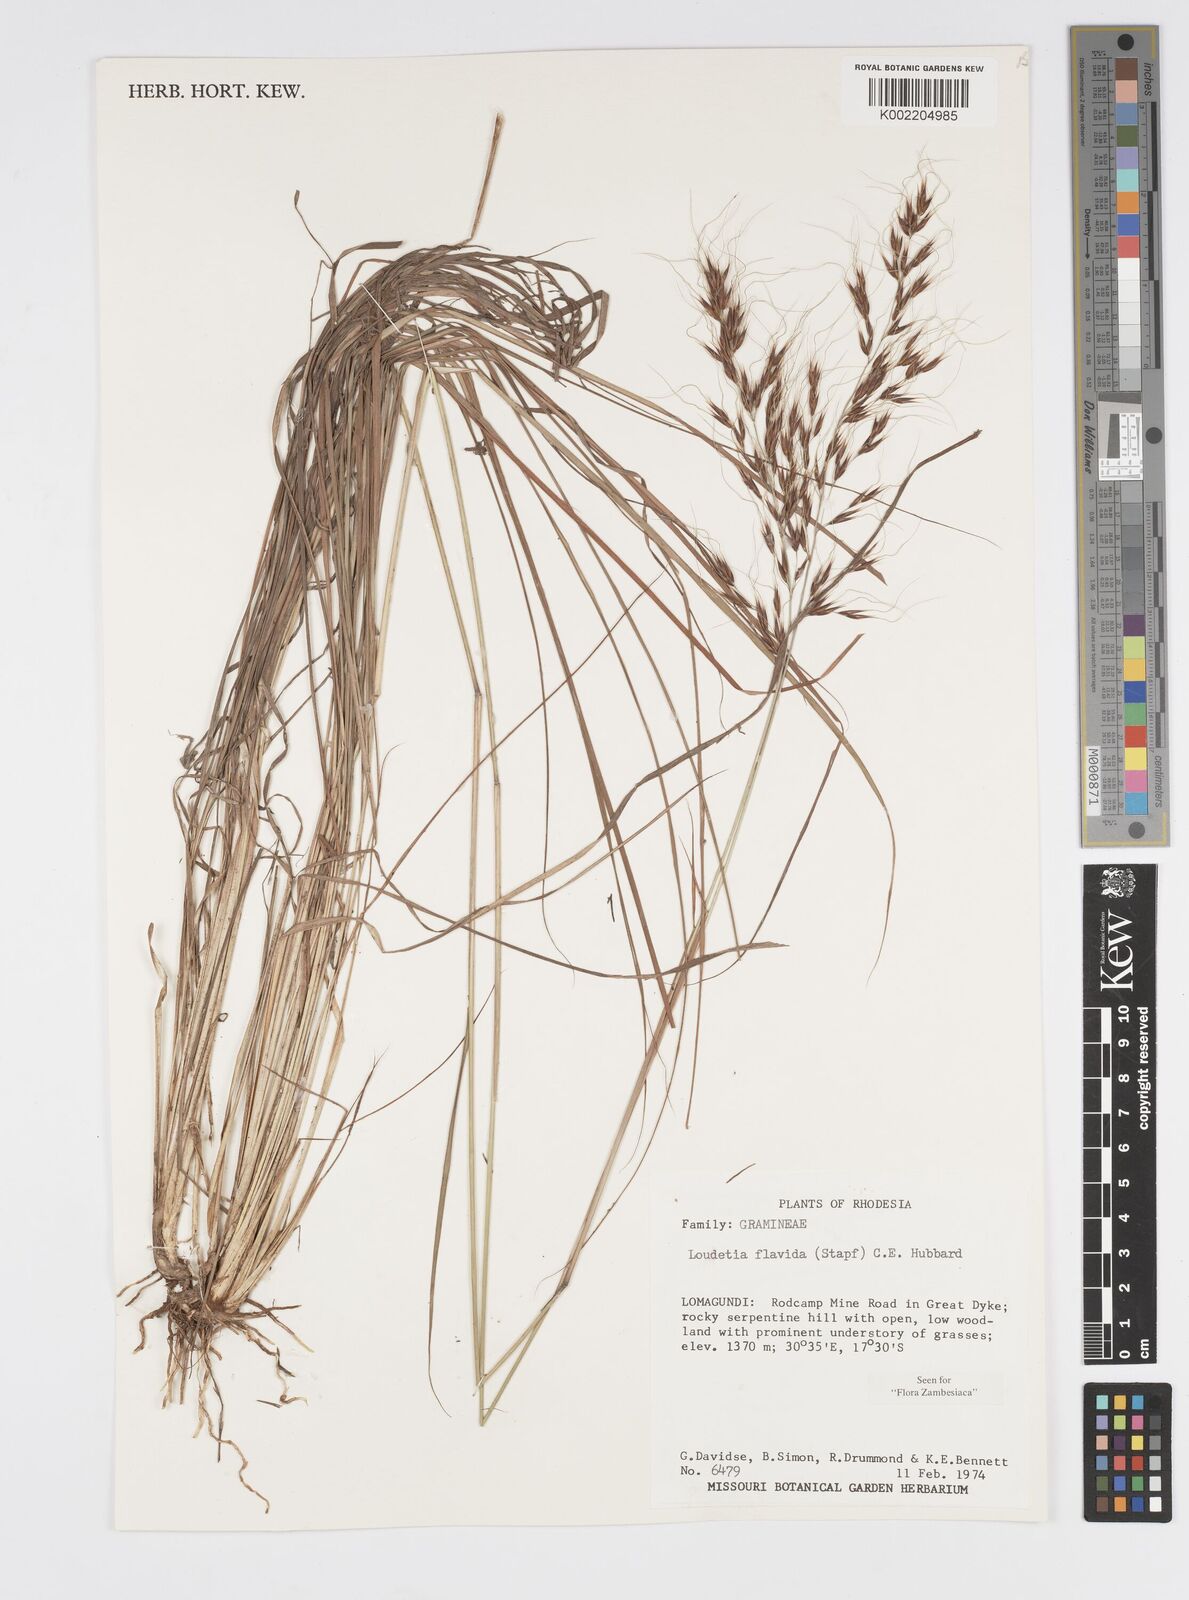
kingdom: Plantae
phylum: Tracheophyta
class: Liliopsida
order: Poales
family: Poaceae
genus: Loudetia
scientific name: Loudetia flavida
